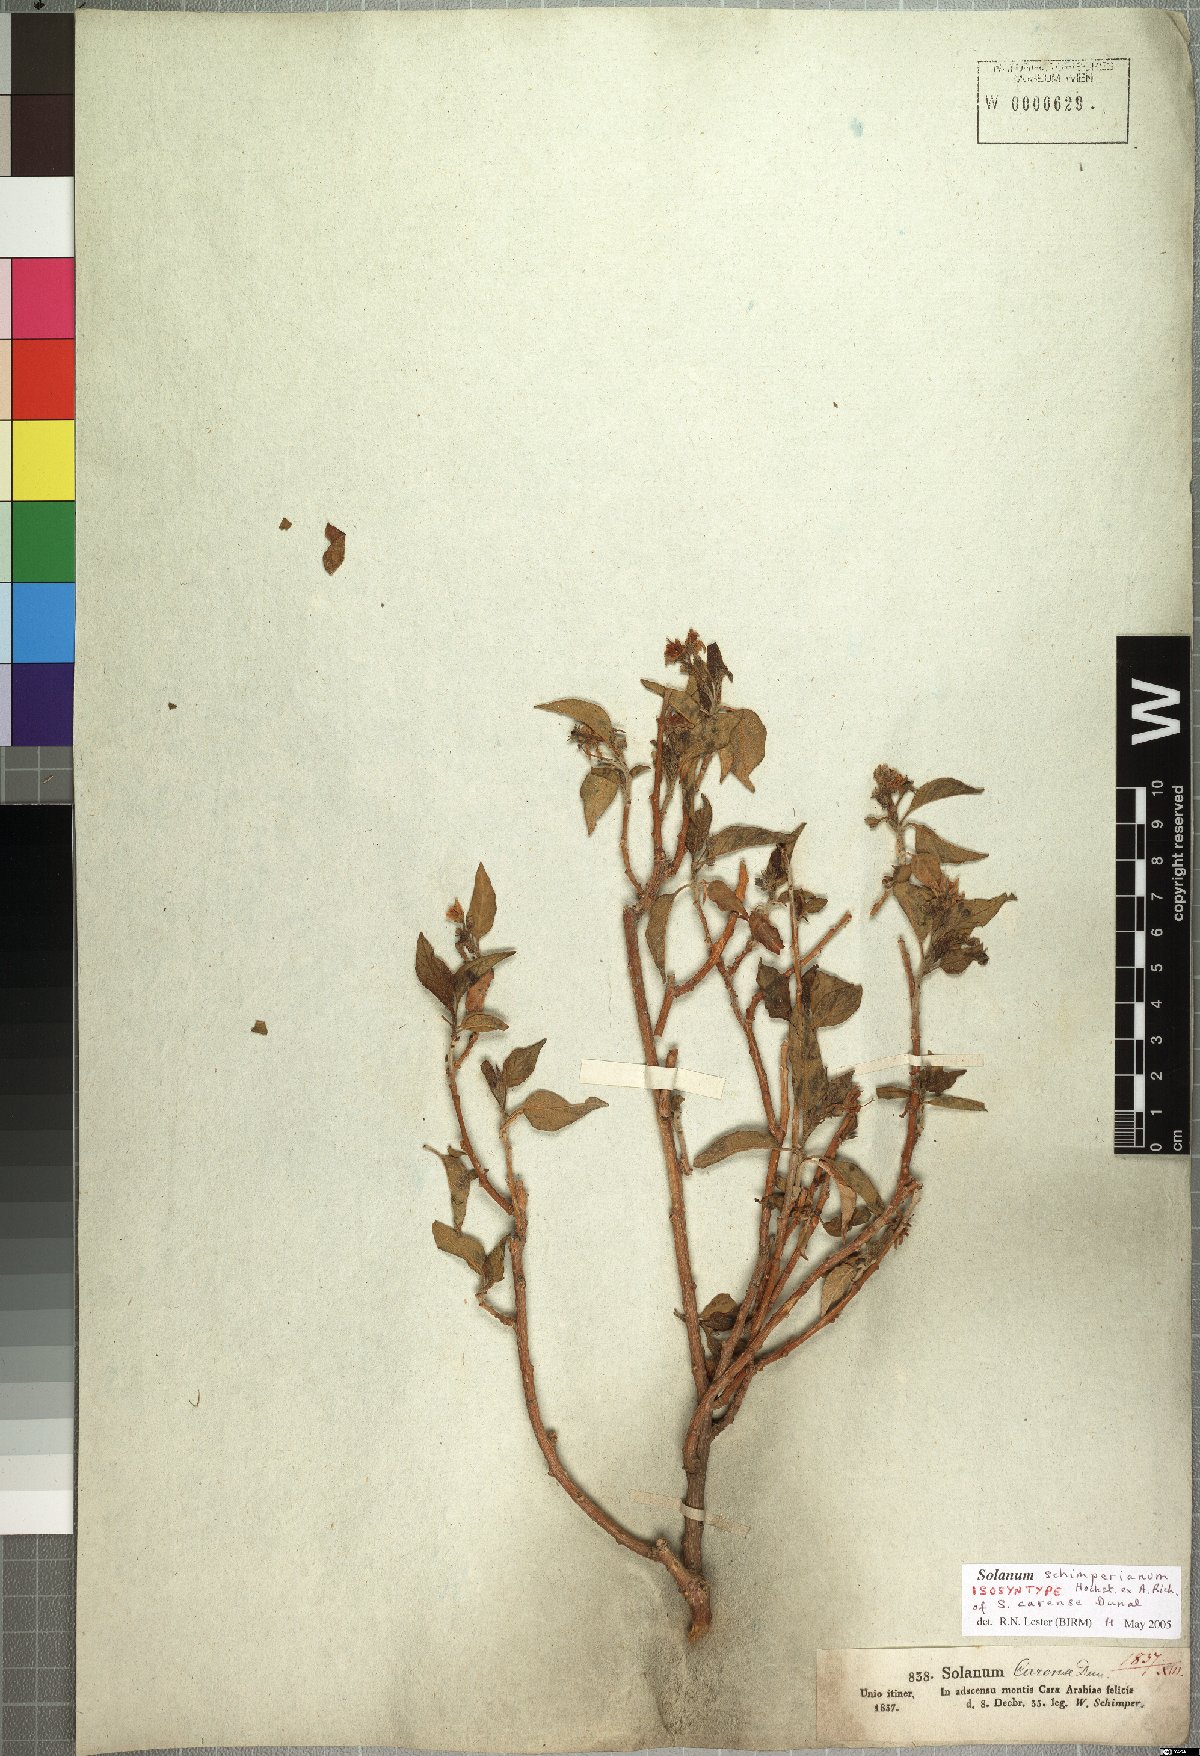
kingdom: Plantae
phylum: Tracheophyta
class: Magnoliopsida
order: Solanales
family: Solanaceae
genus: Solanum
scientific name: Solanum schimperianum
